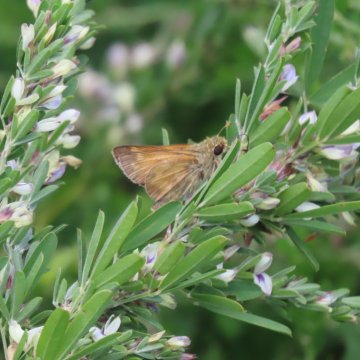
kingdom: Animalia
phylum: Arthropoda
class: Insecta
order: Lepidoptera
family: Hesperiidae
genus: Atalopedes
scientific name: Atalopedes campestris
